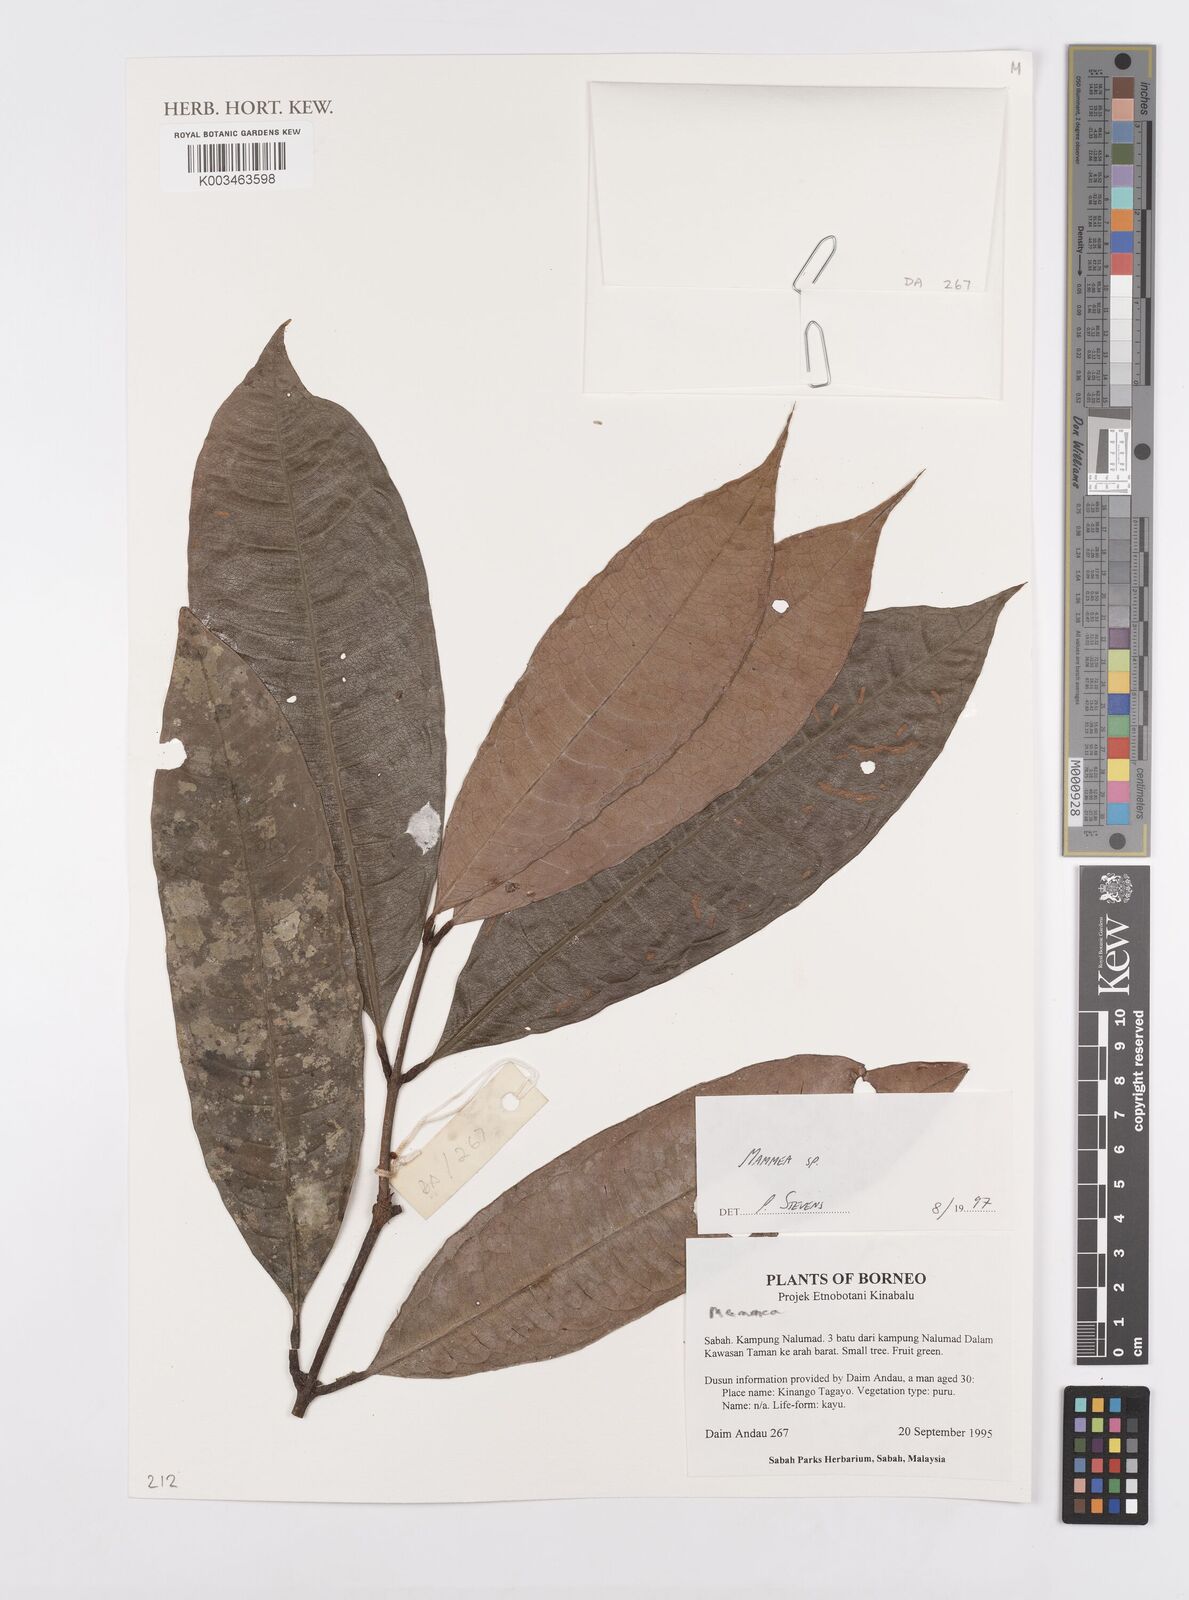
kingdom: Plantae
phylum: Tracheophyta
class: Magnoliopsida
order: Malpighiales
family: Calophyllaceae
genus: Mammea
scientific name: Mammea
